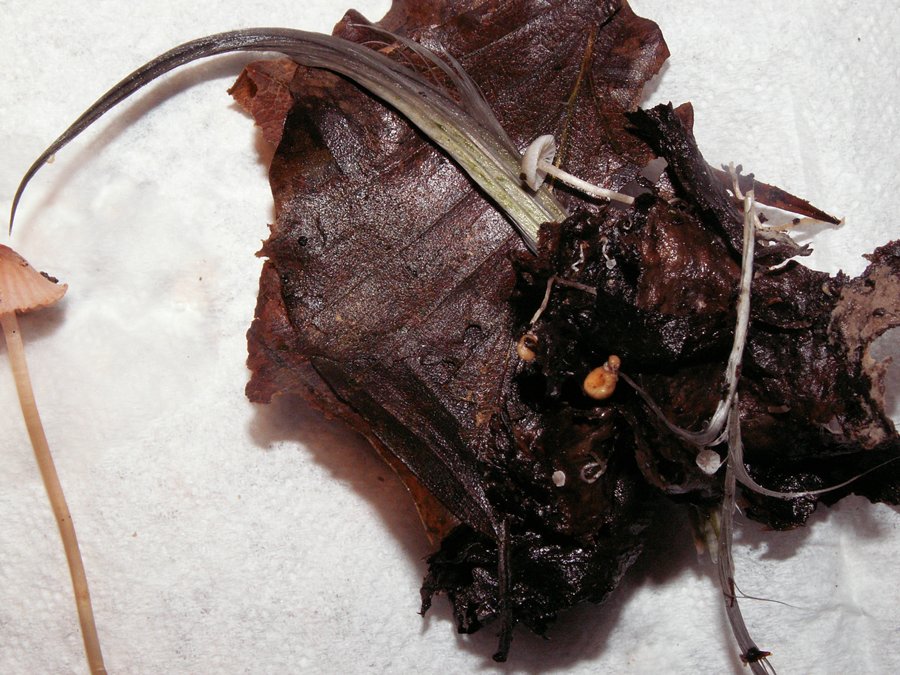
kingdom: Fungi
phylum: Basidiomycota
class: Agaricomycetes
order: Agaricales
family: Tricholomataceae
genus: Collybia
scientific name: Collybia cookei
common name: gulknoldet lighat
